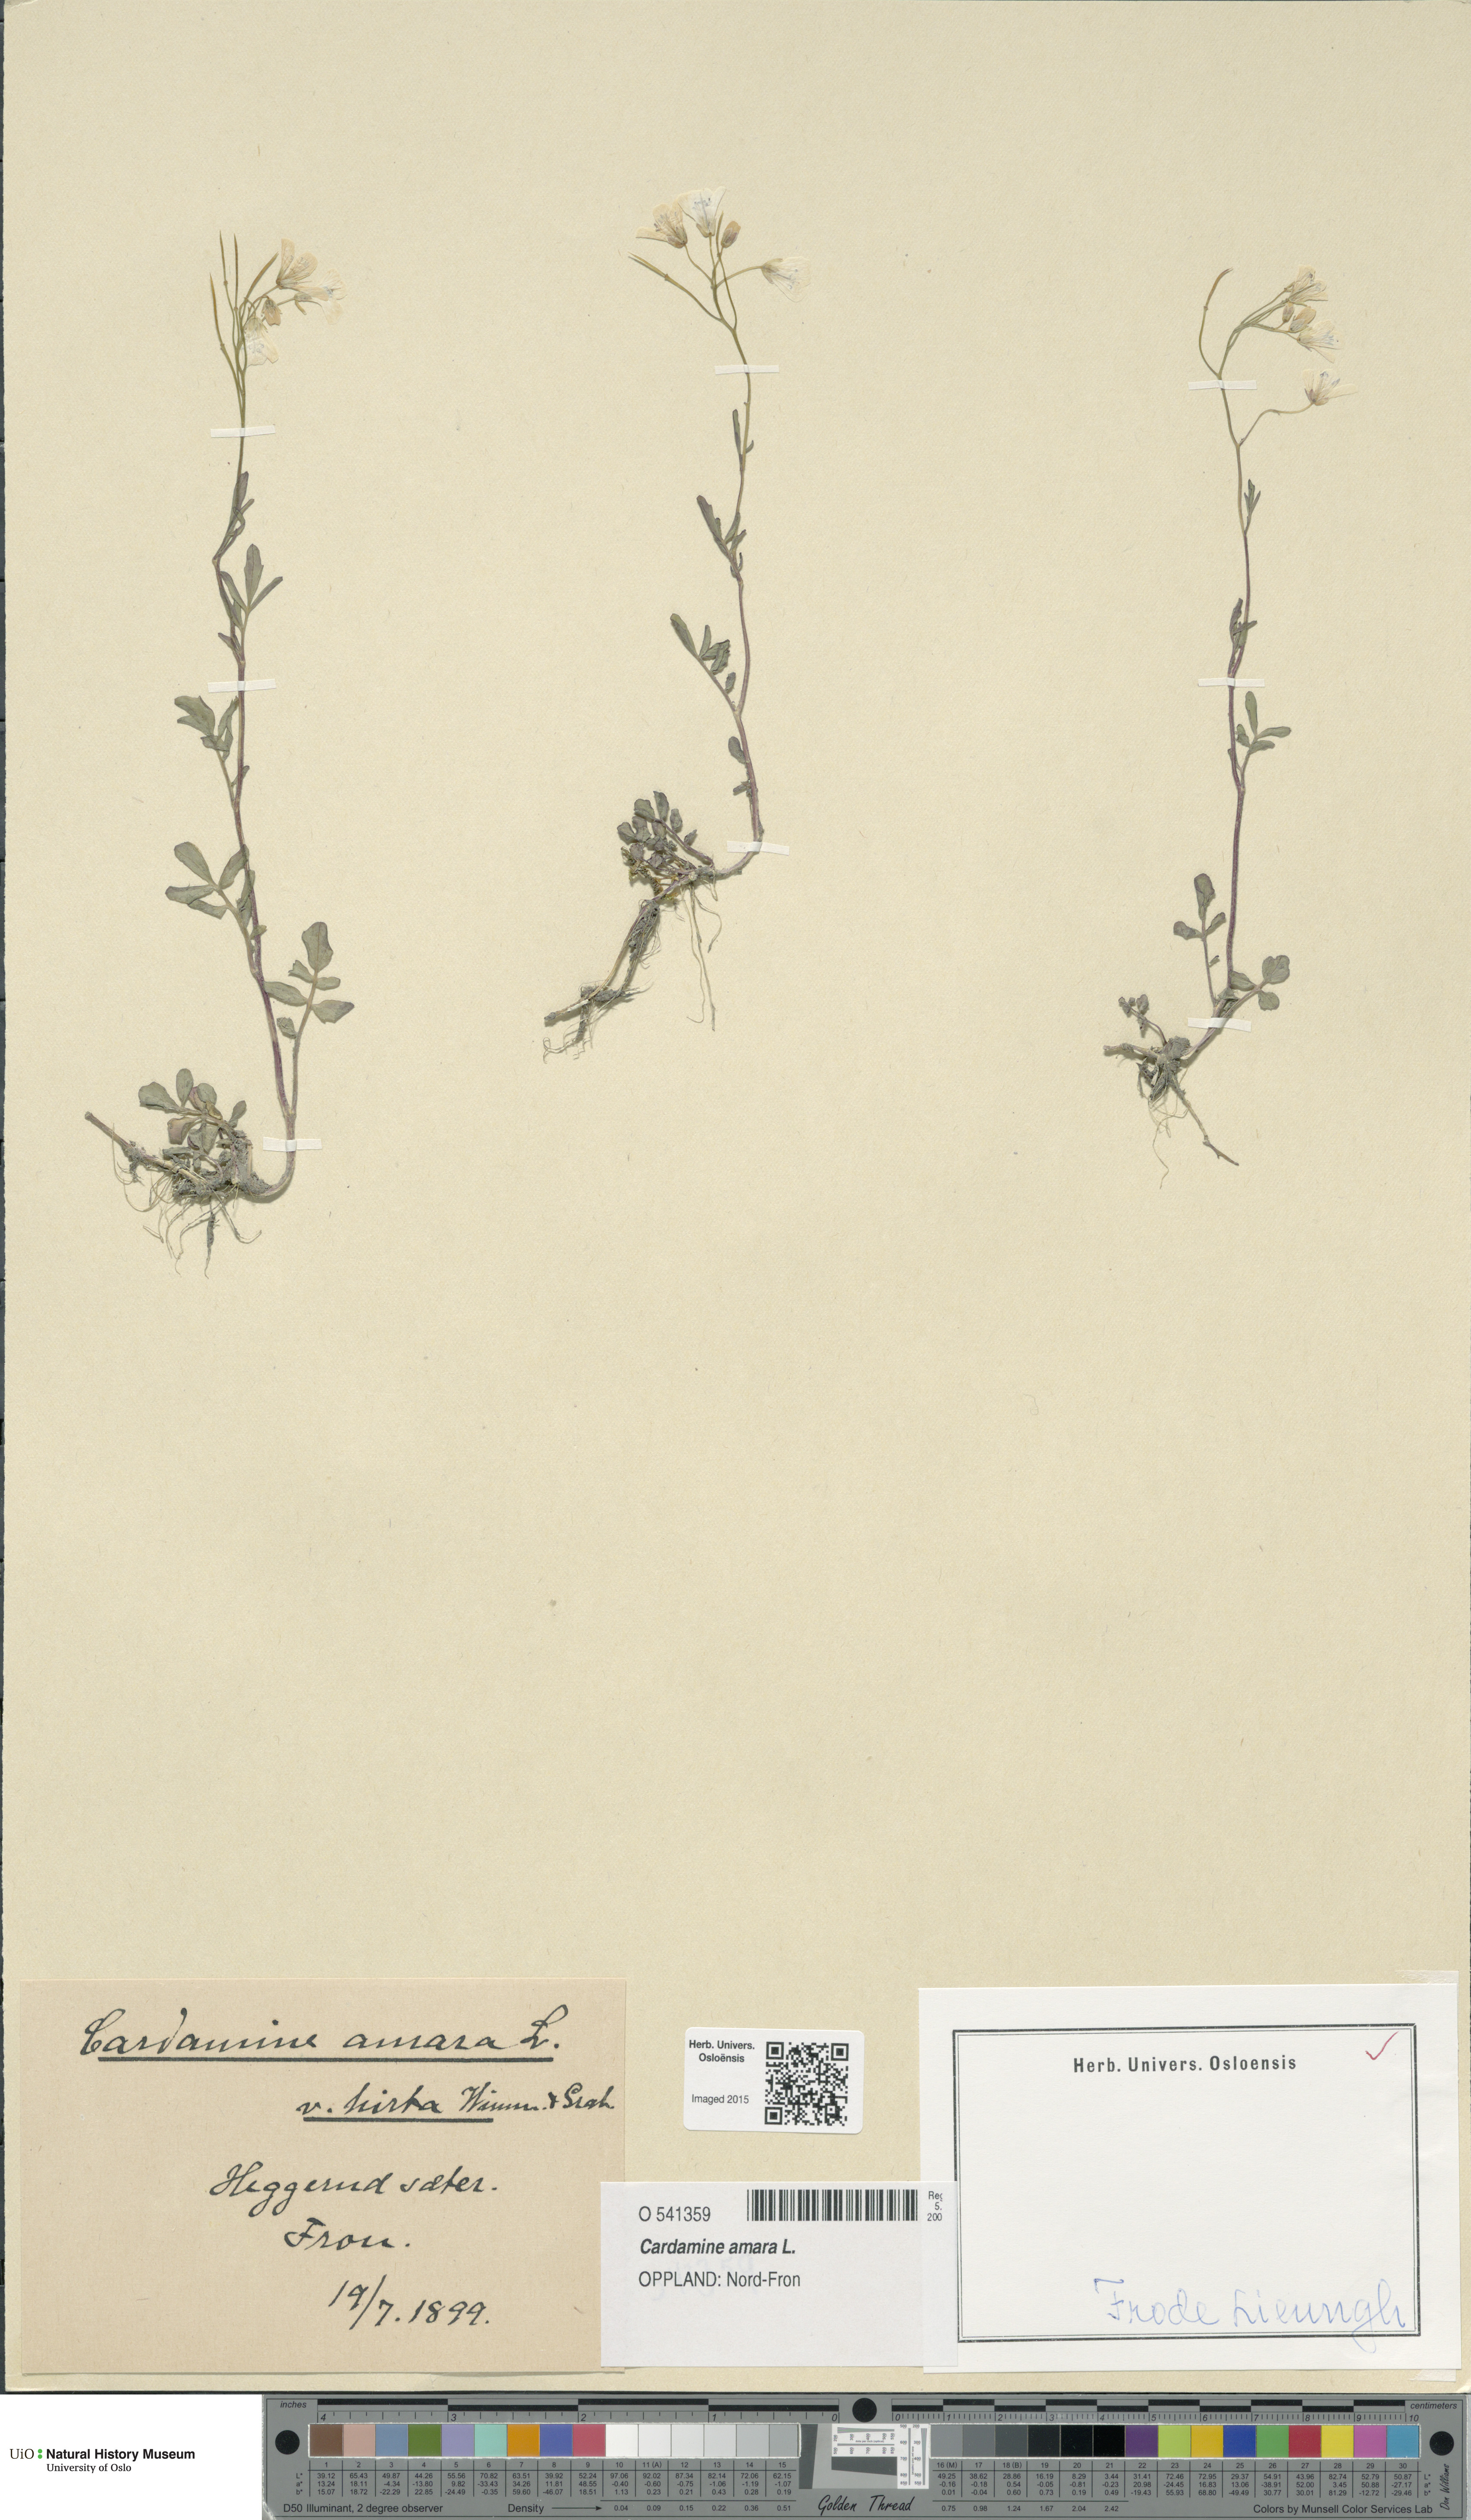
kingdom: Plantae
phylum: Tracheophyta
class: Magnoliopsida
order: Brassicales
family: Brassicaceae
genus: Cardamine
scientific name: Cardamine amara
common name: Large bitter-cress
